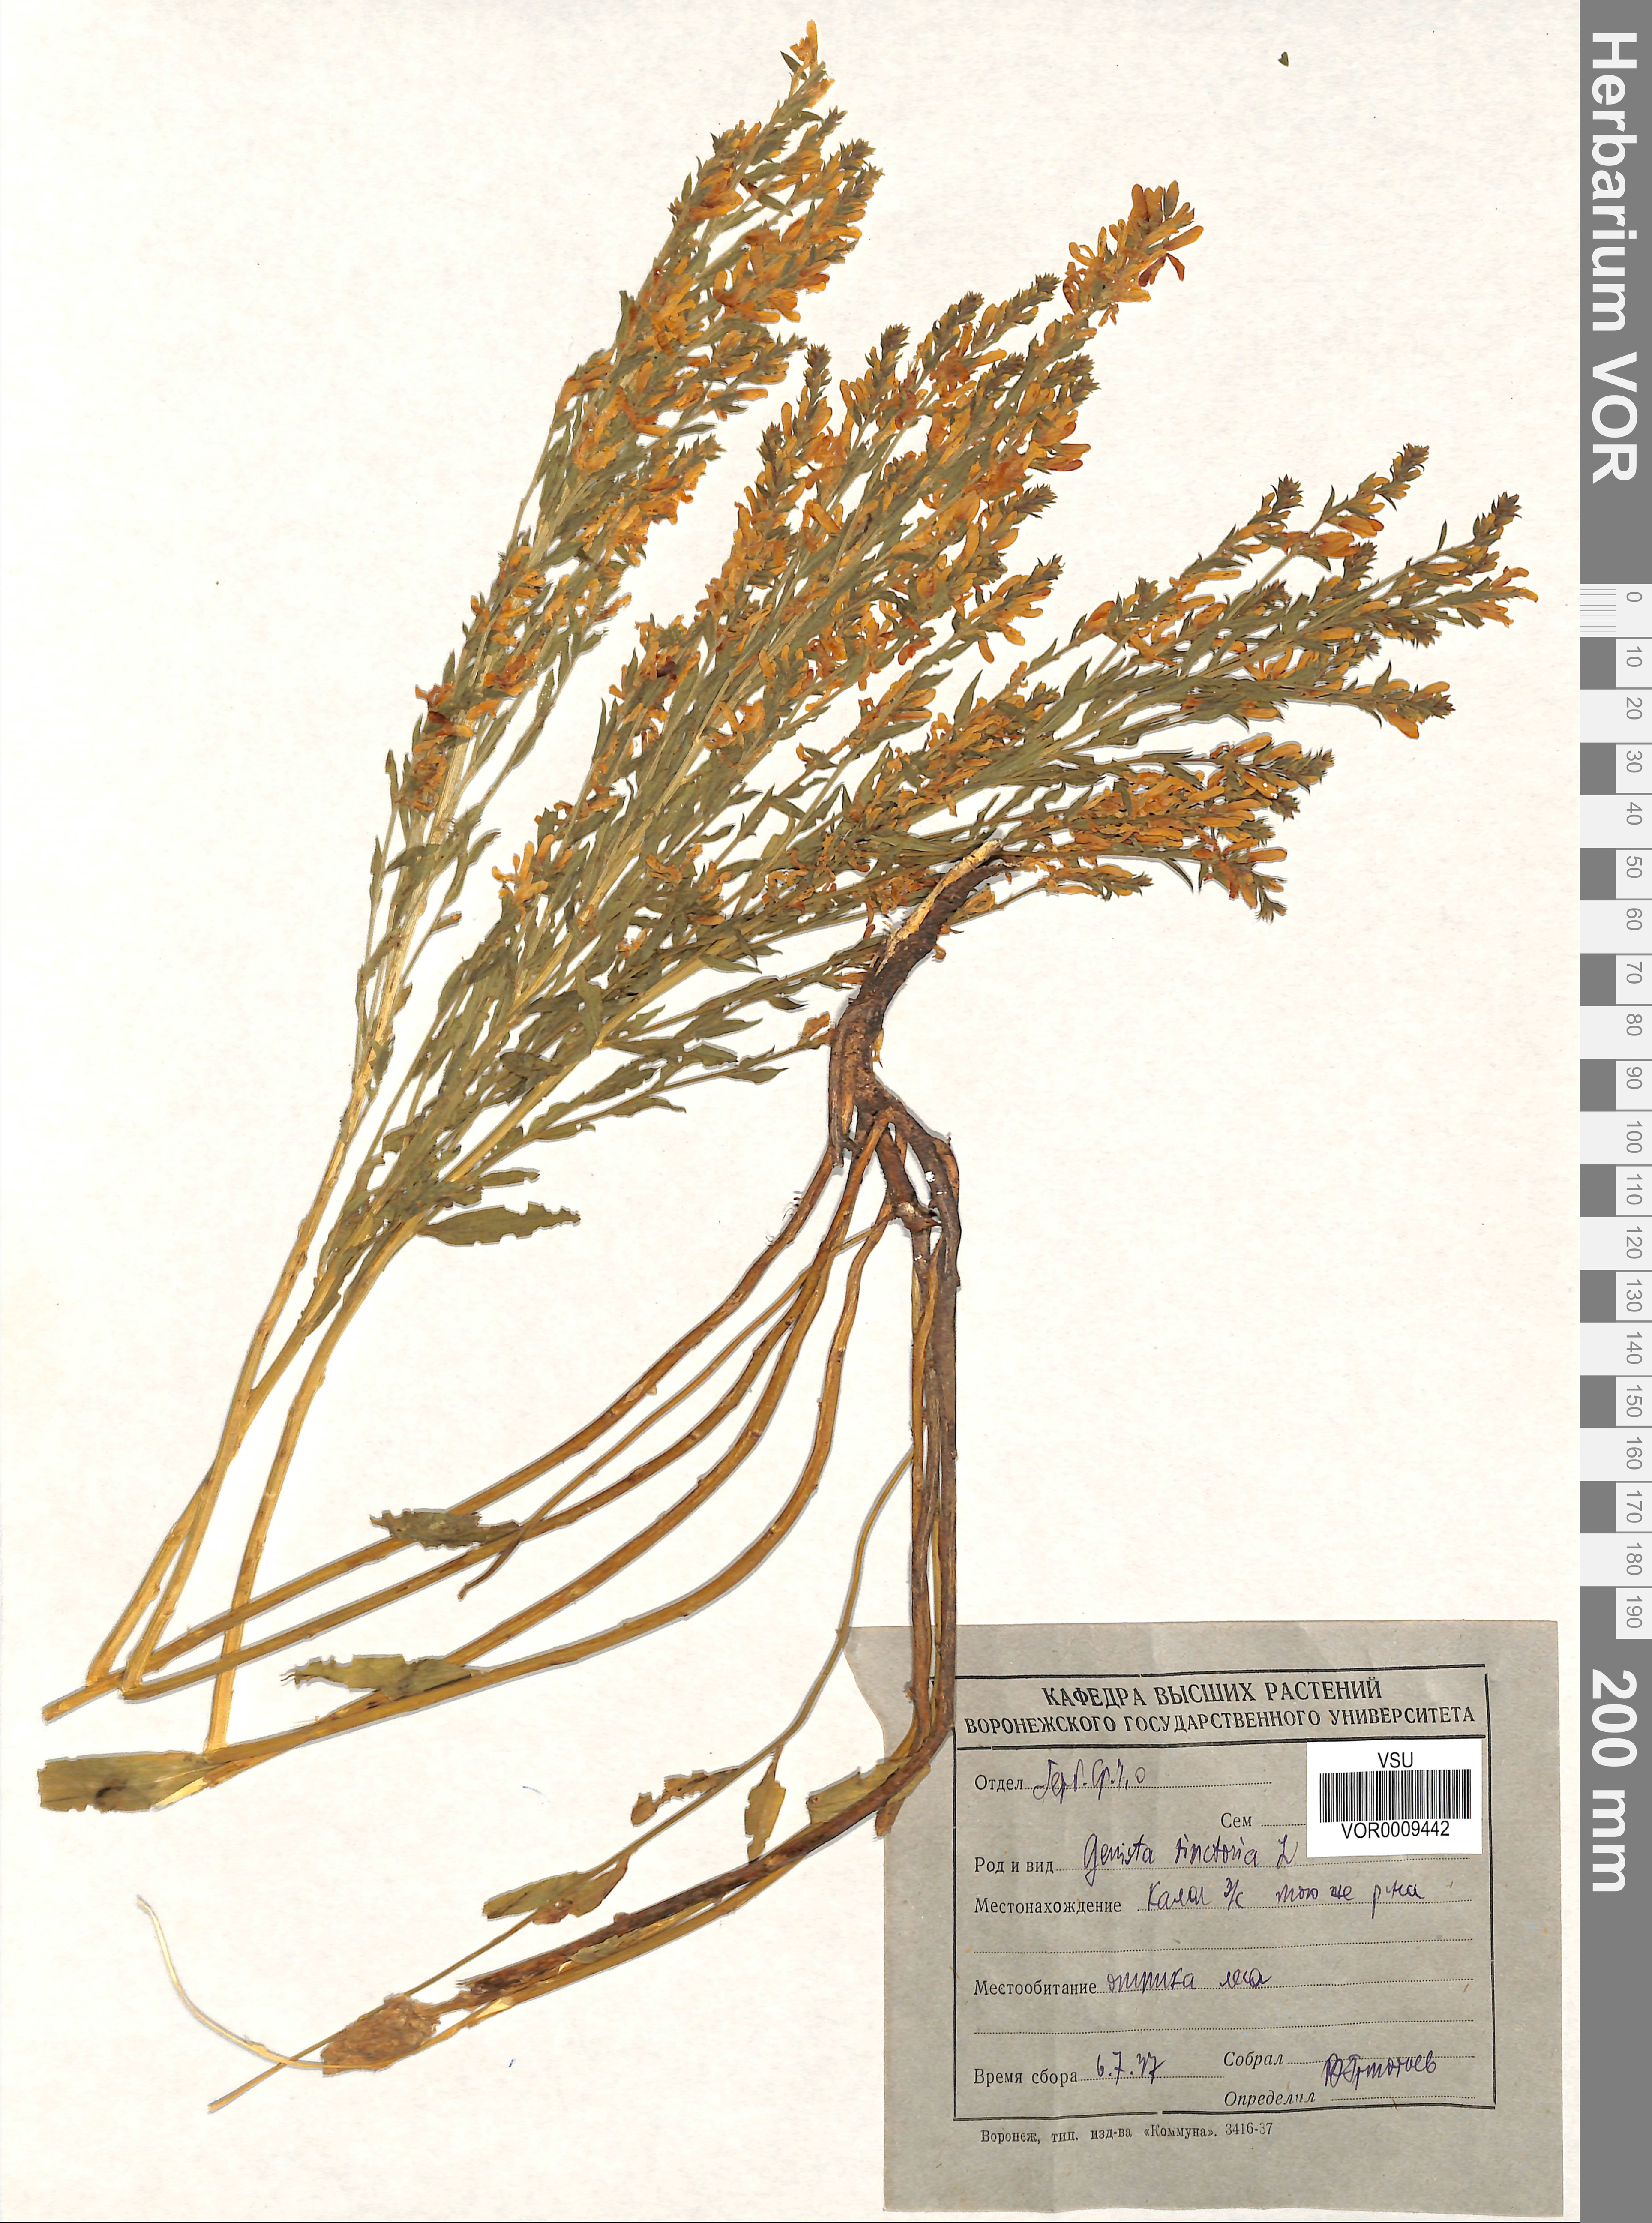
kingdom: Plantae
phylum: Tracheophyta
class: Magnoliopsida
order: Fabales
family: Fabaceae
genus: Genista
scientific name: Genista tinctoria
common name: Dyer's greenweed
